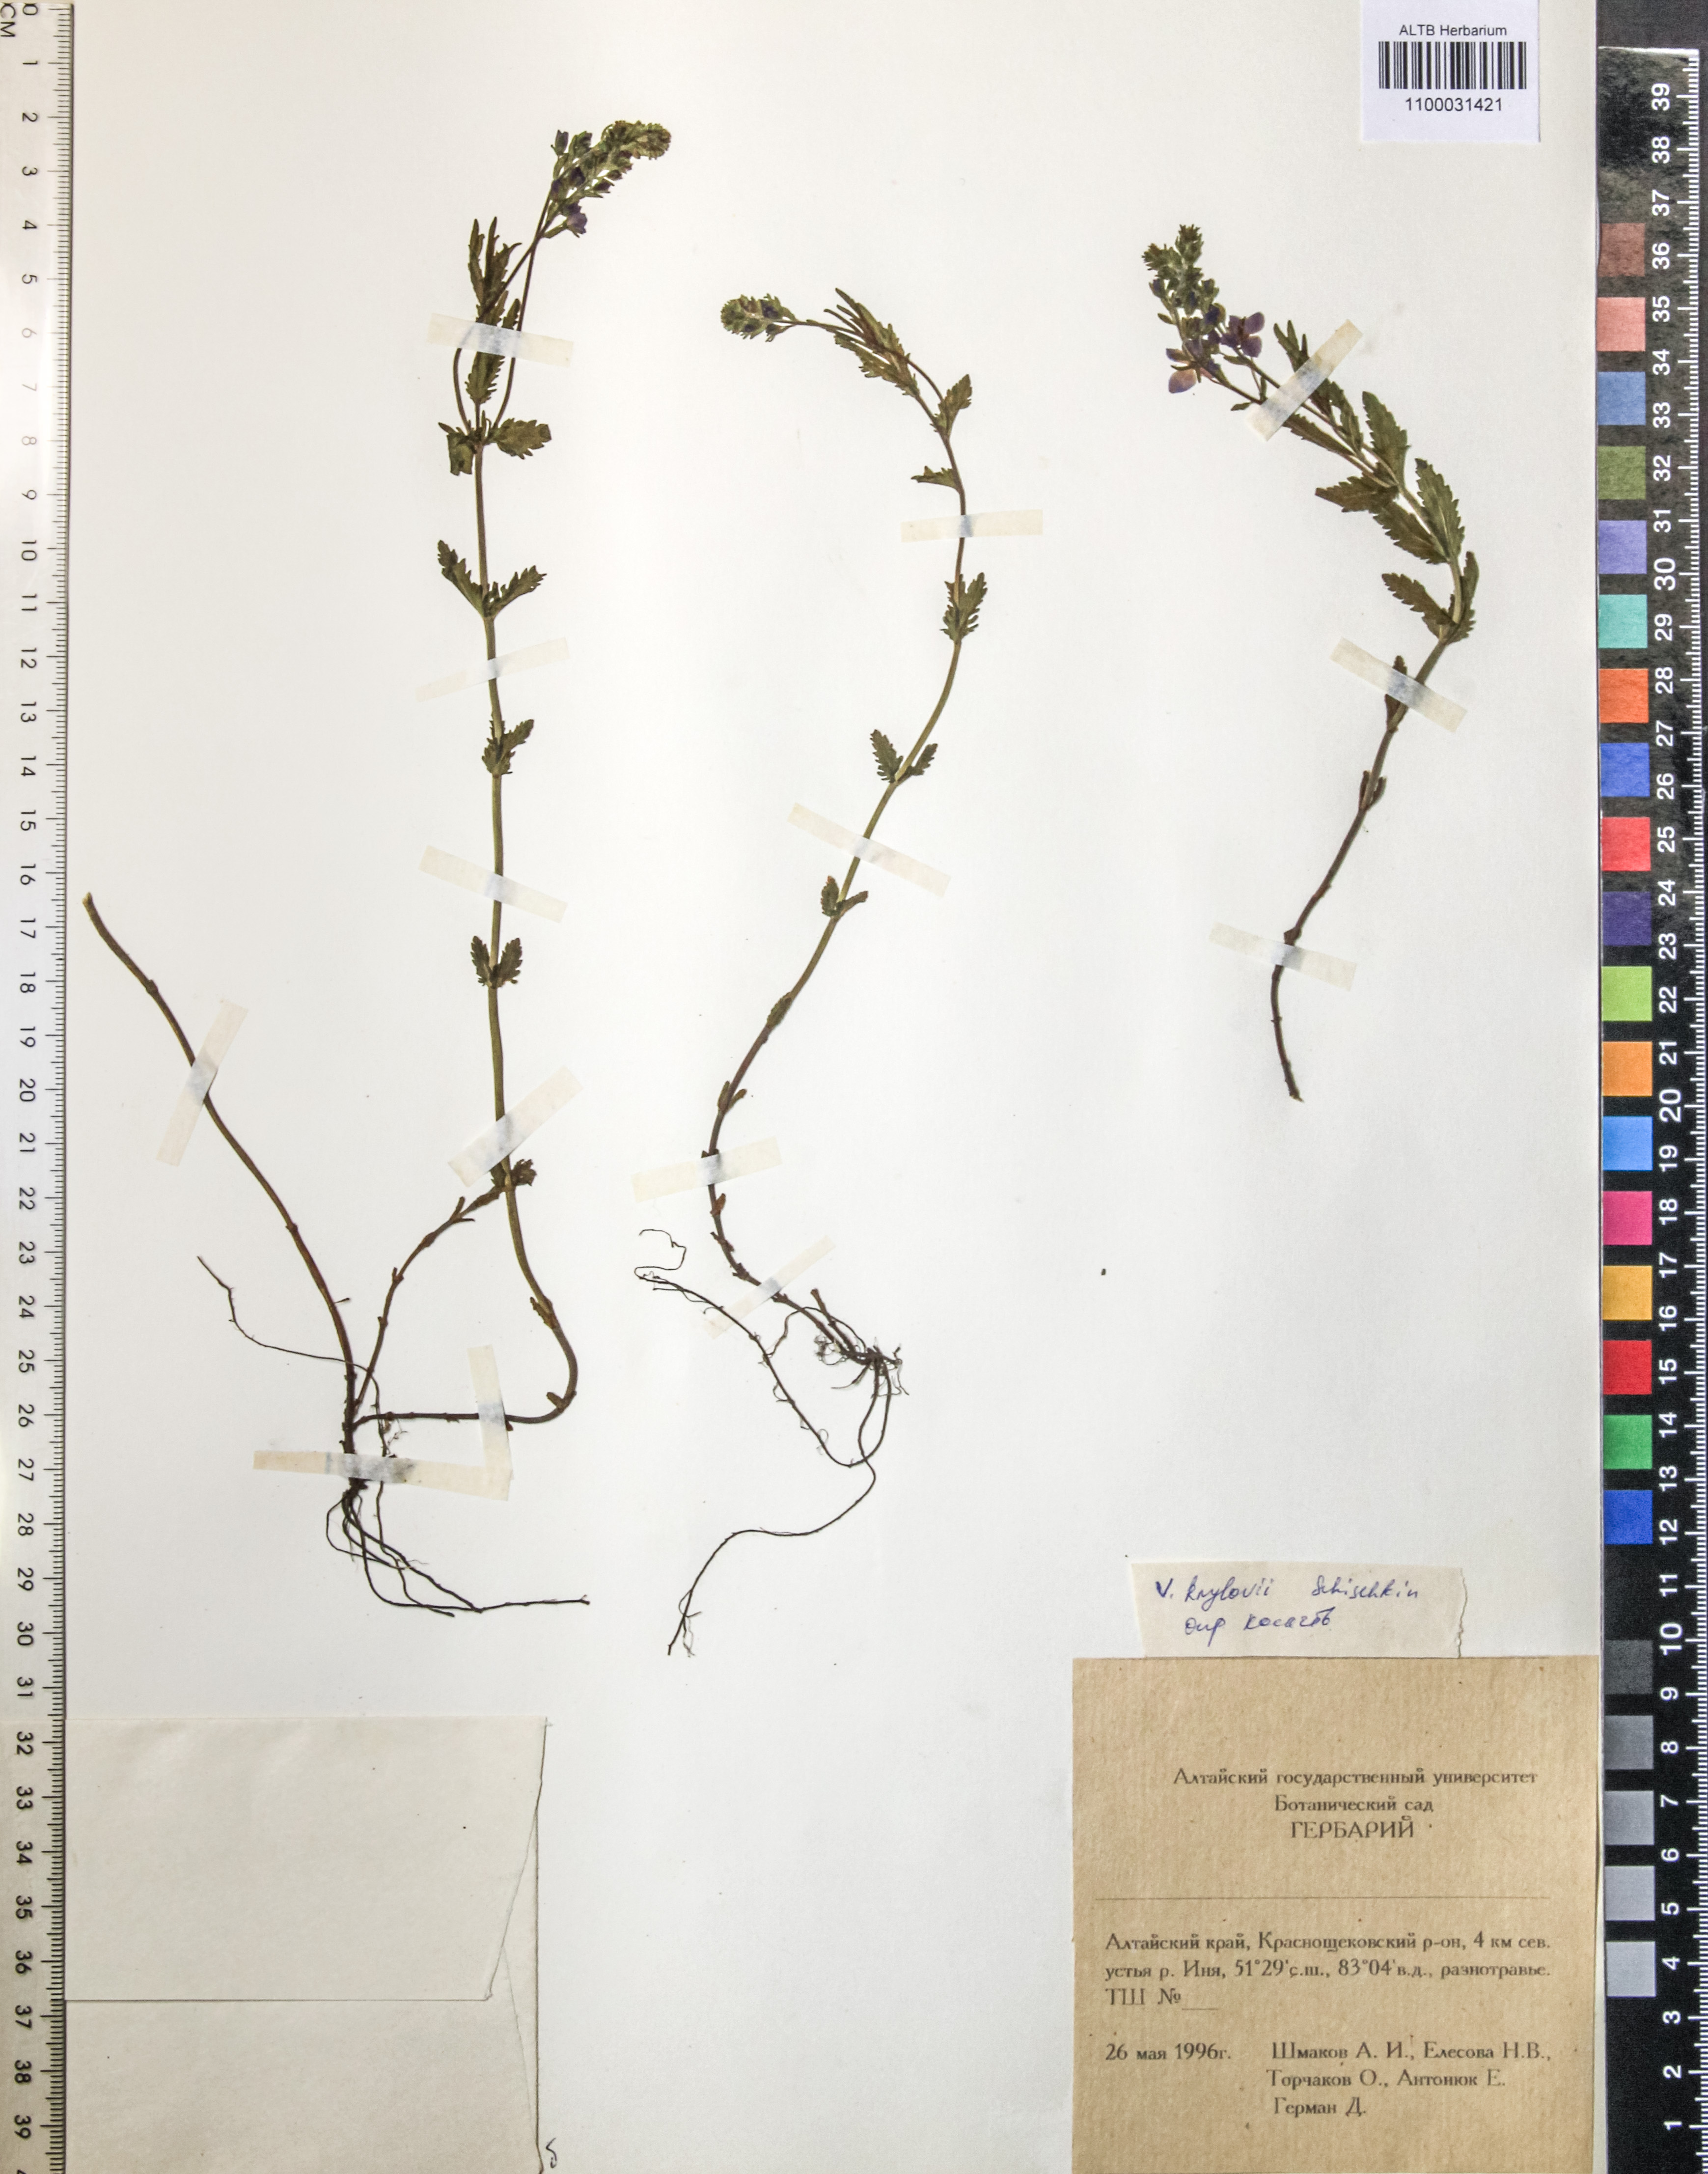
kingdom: Plantae
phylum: Tracheophyta
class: Magnoliopsida
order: Lamiales
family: Plantaginaceae
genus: Veronica
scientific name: Veronica krylovii
